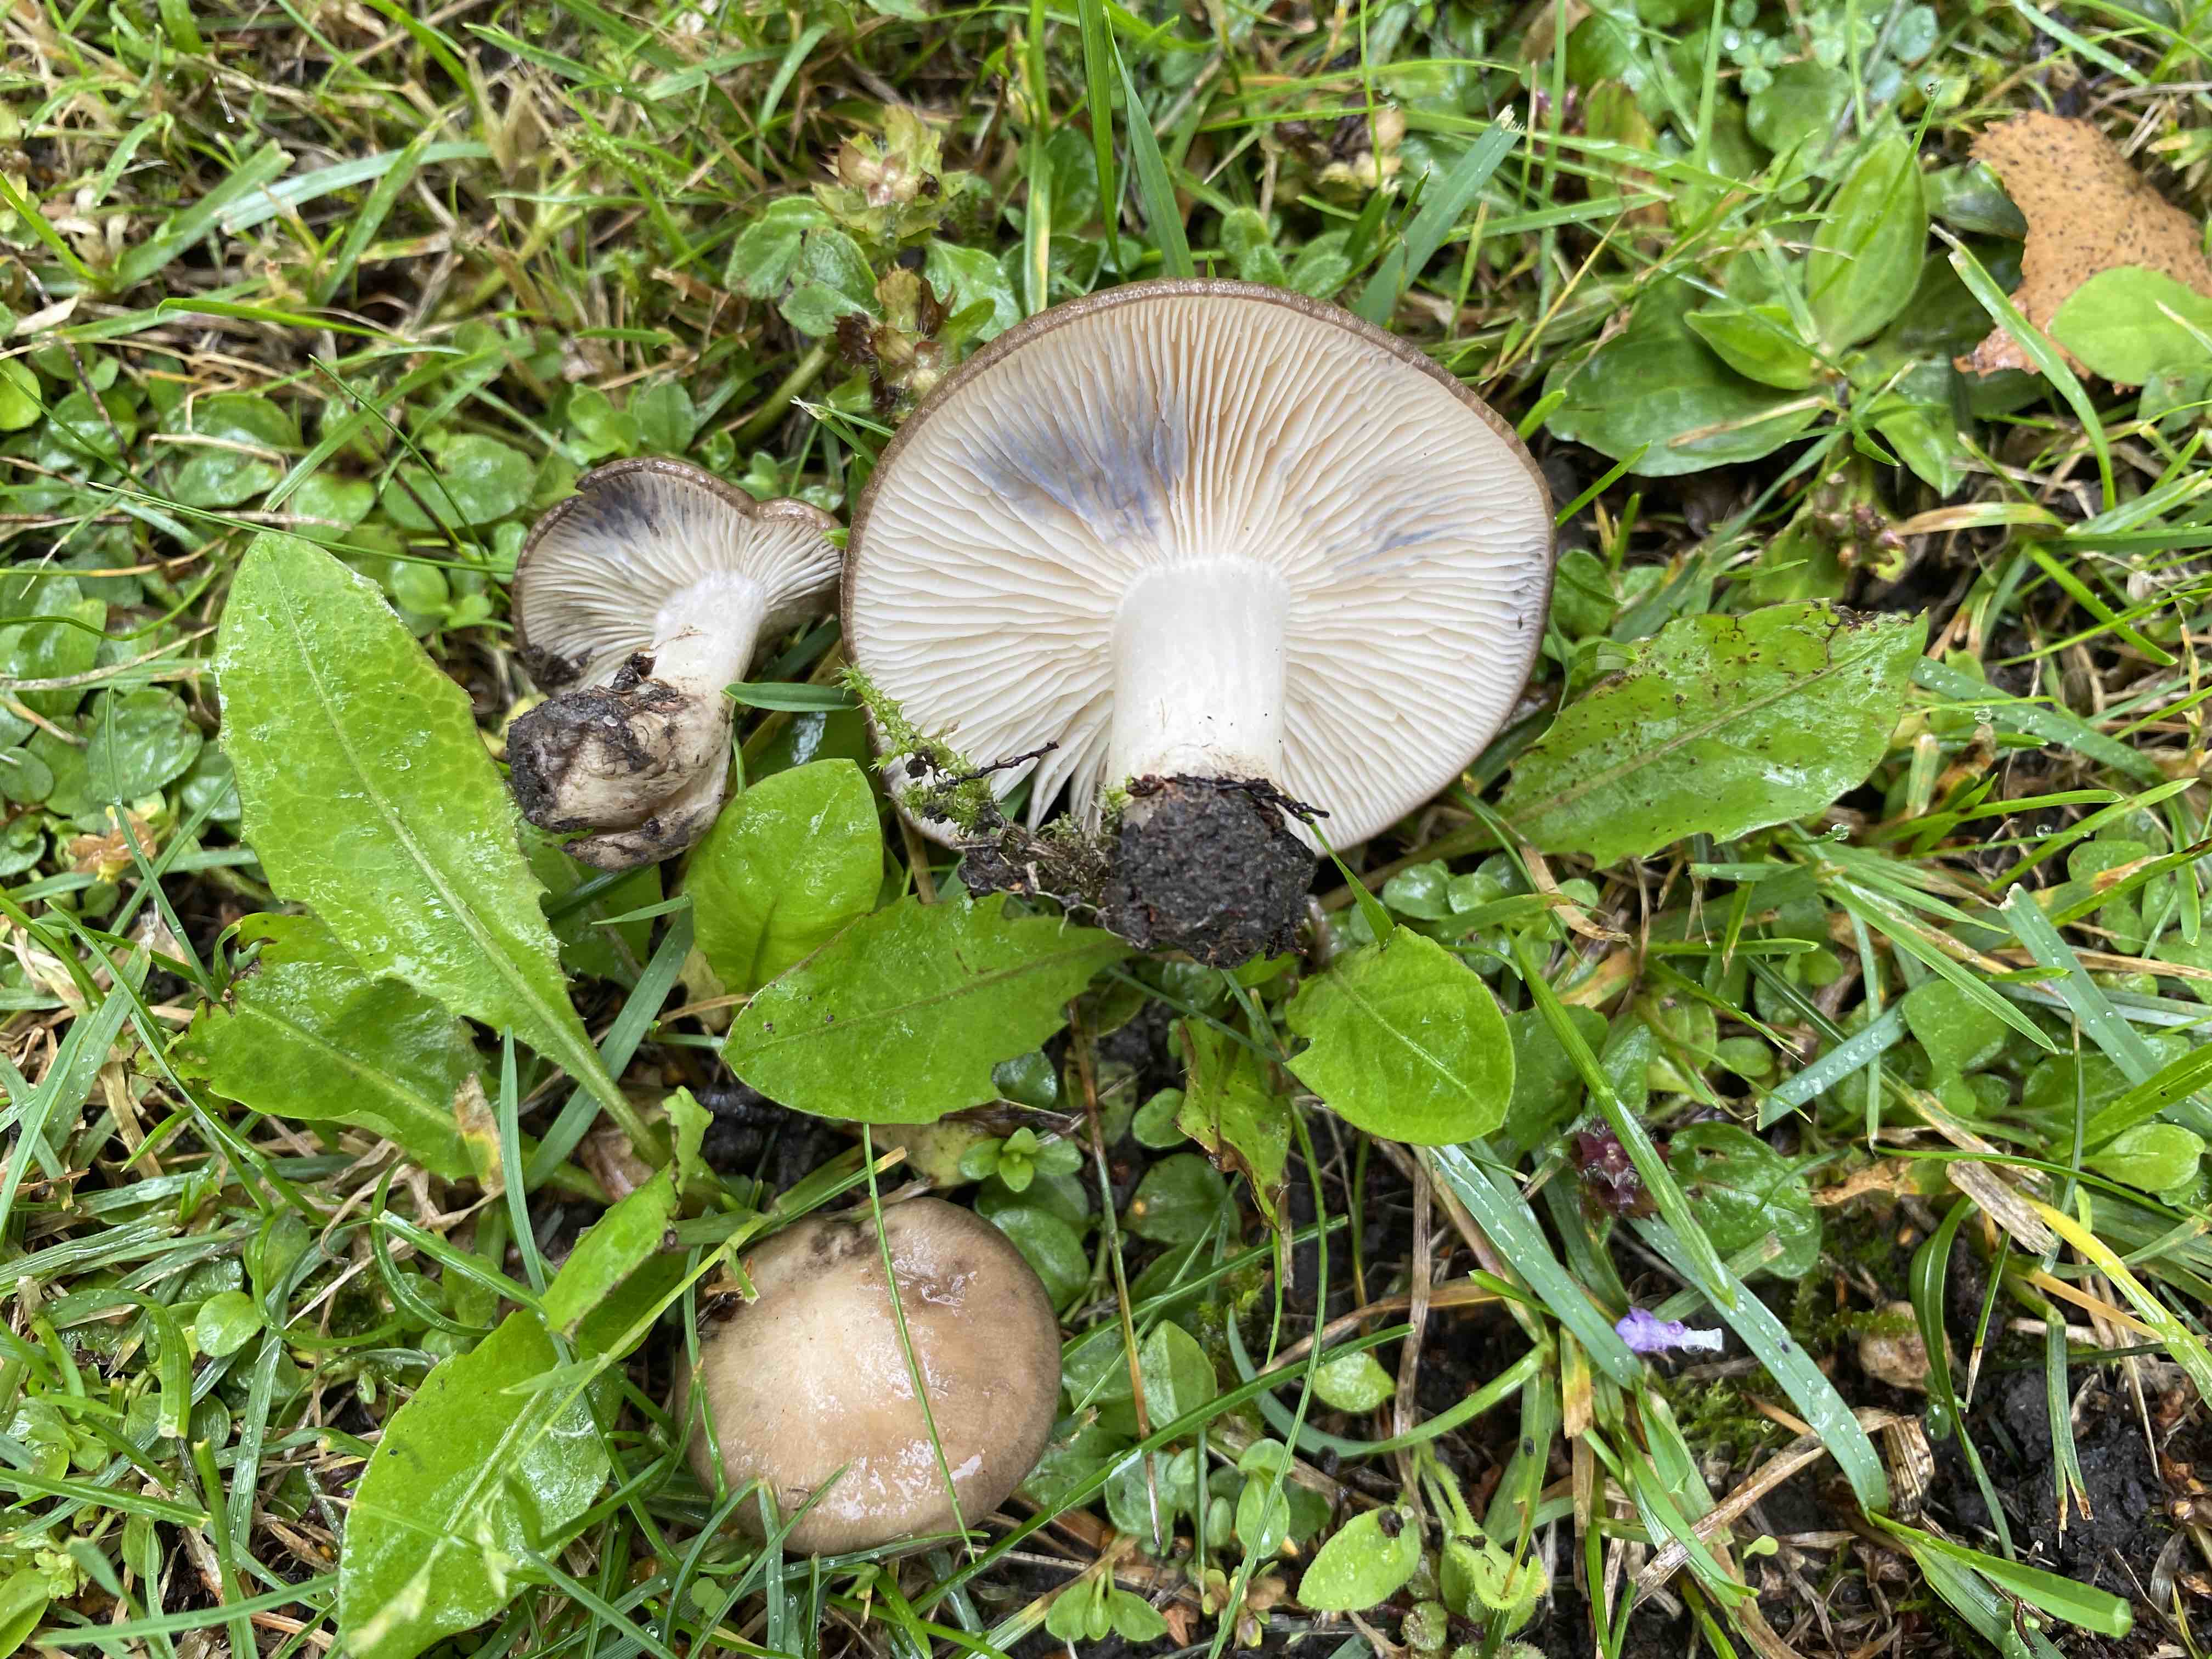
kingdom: Fungi
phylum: Basidiomycota
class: Agaricomycetes
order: Agaricales
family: Lyophyllaceae
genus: Lyophyllum
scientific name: Lyophyllum paelochroum
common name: blånende gråblad
